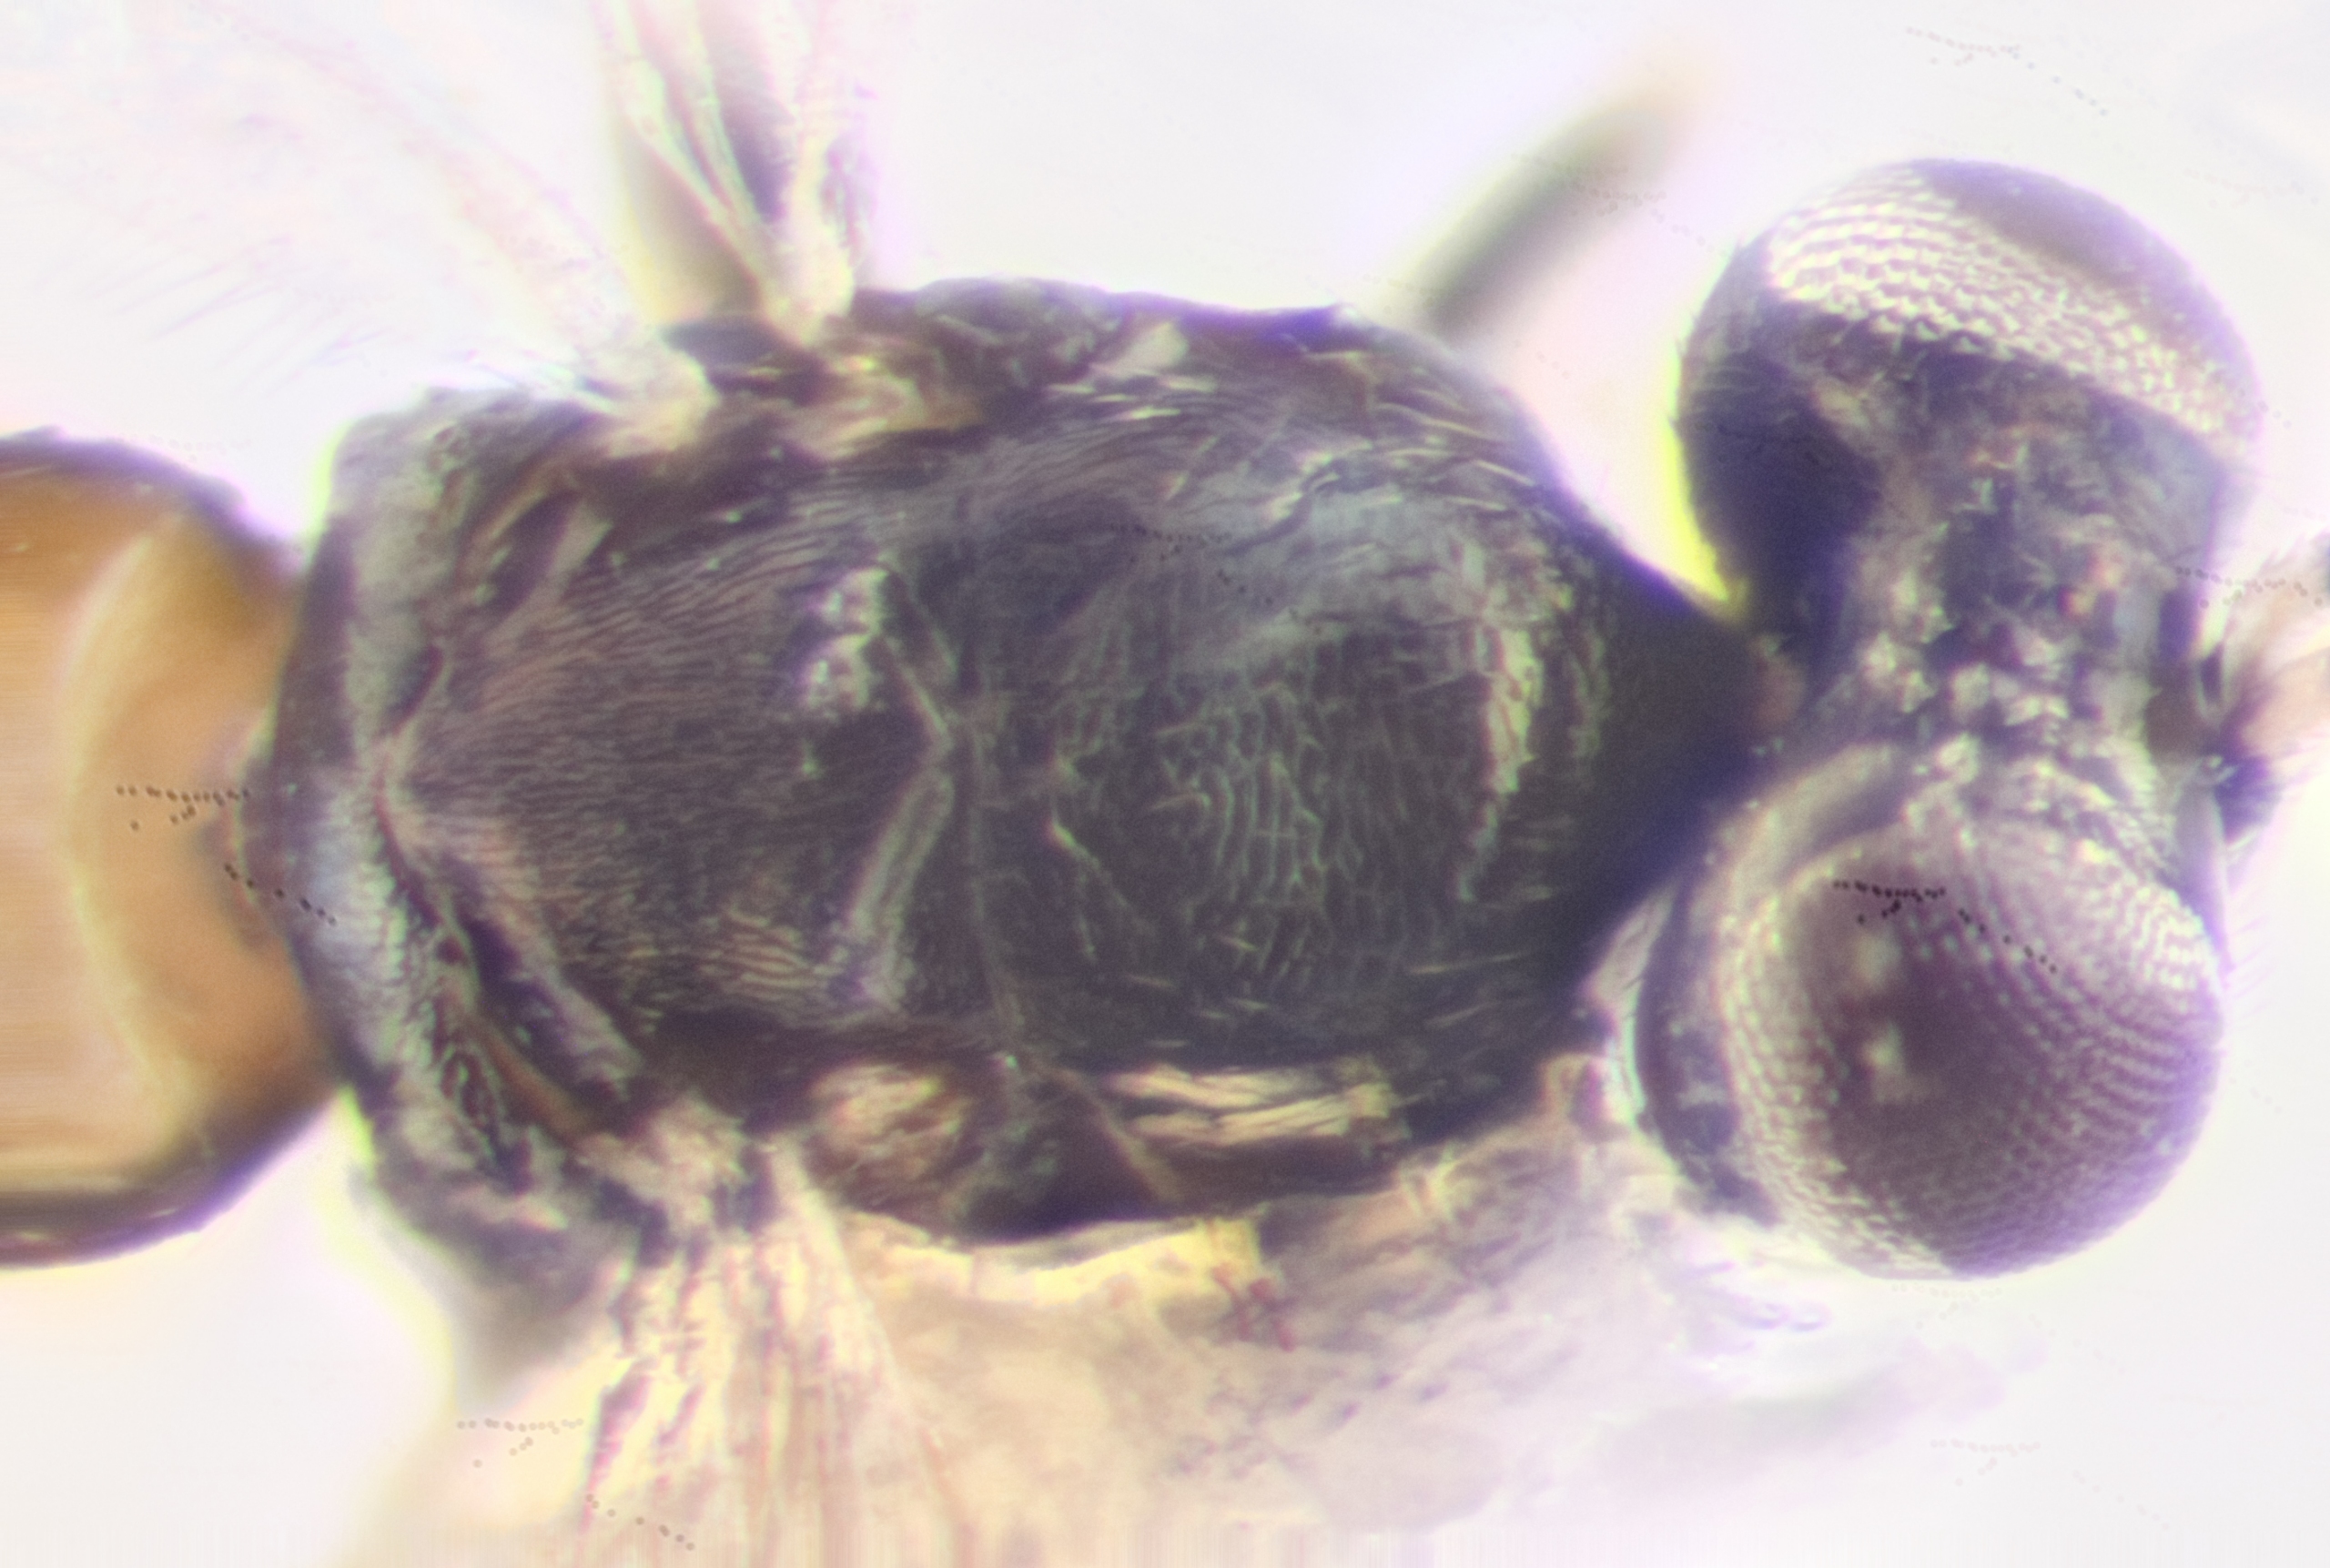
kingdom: Animalia
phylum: Arthropoda
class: Insecta
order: Hymenoptera
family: Encyrtidae
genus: Charitopus
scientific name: Charitopus fulviventris
